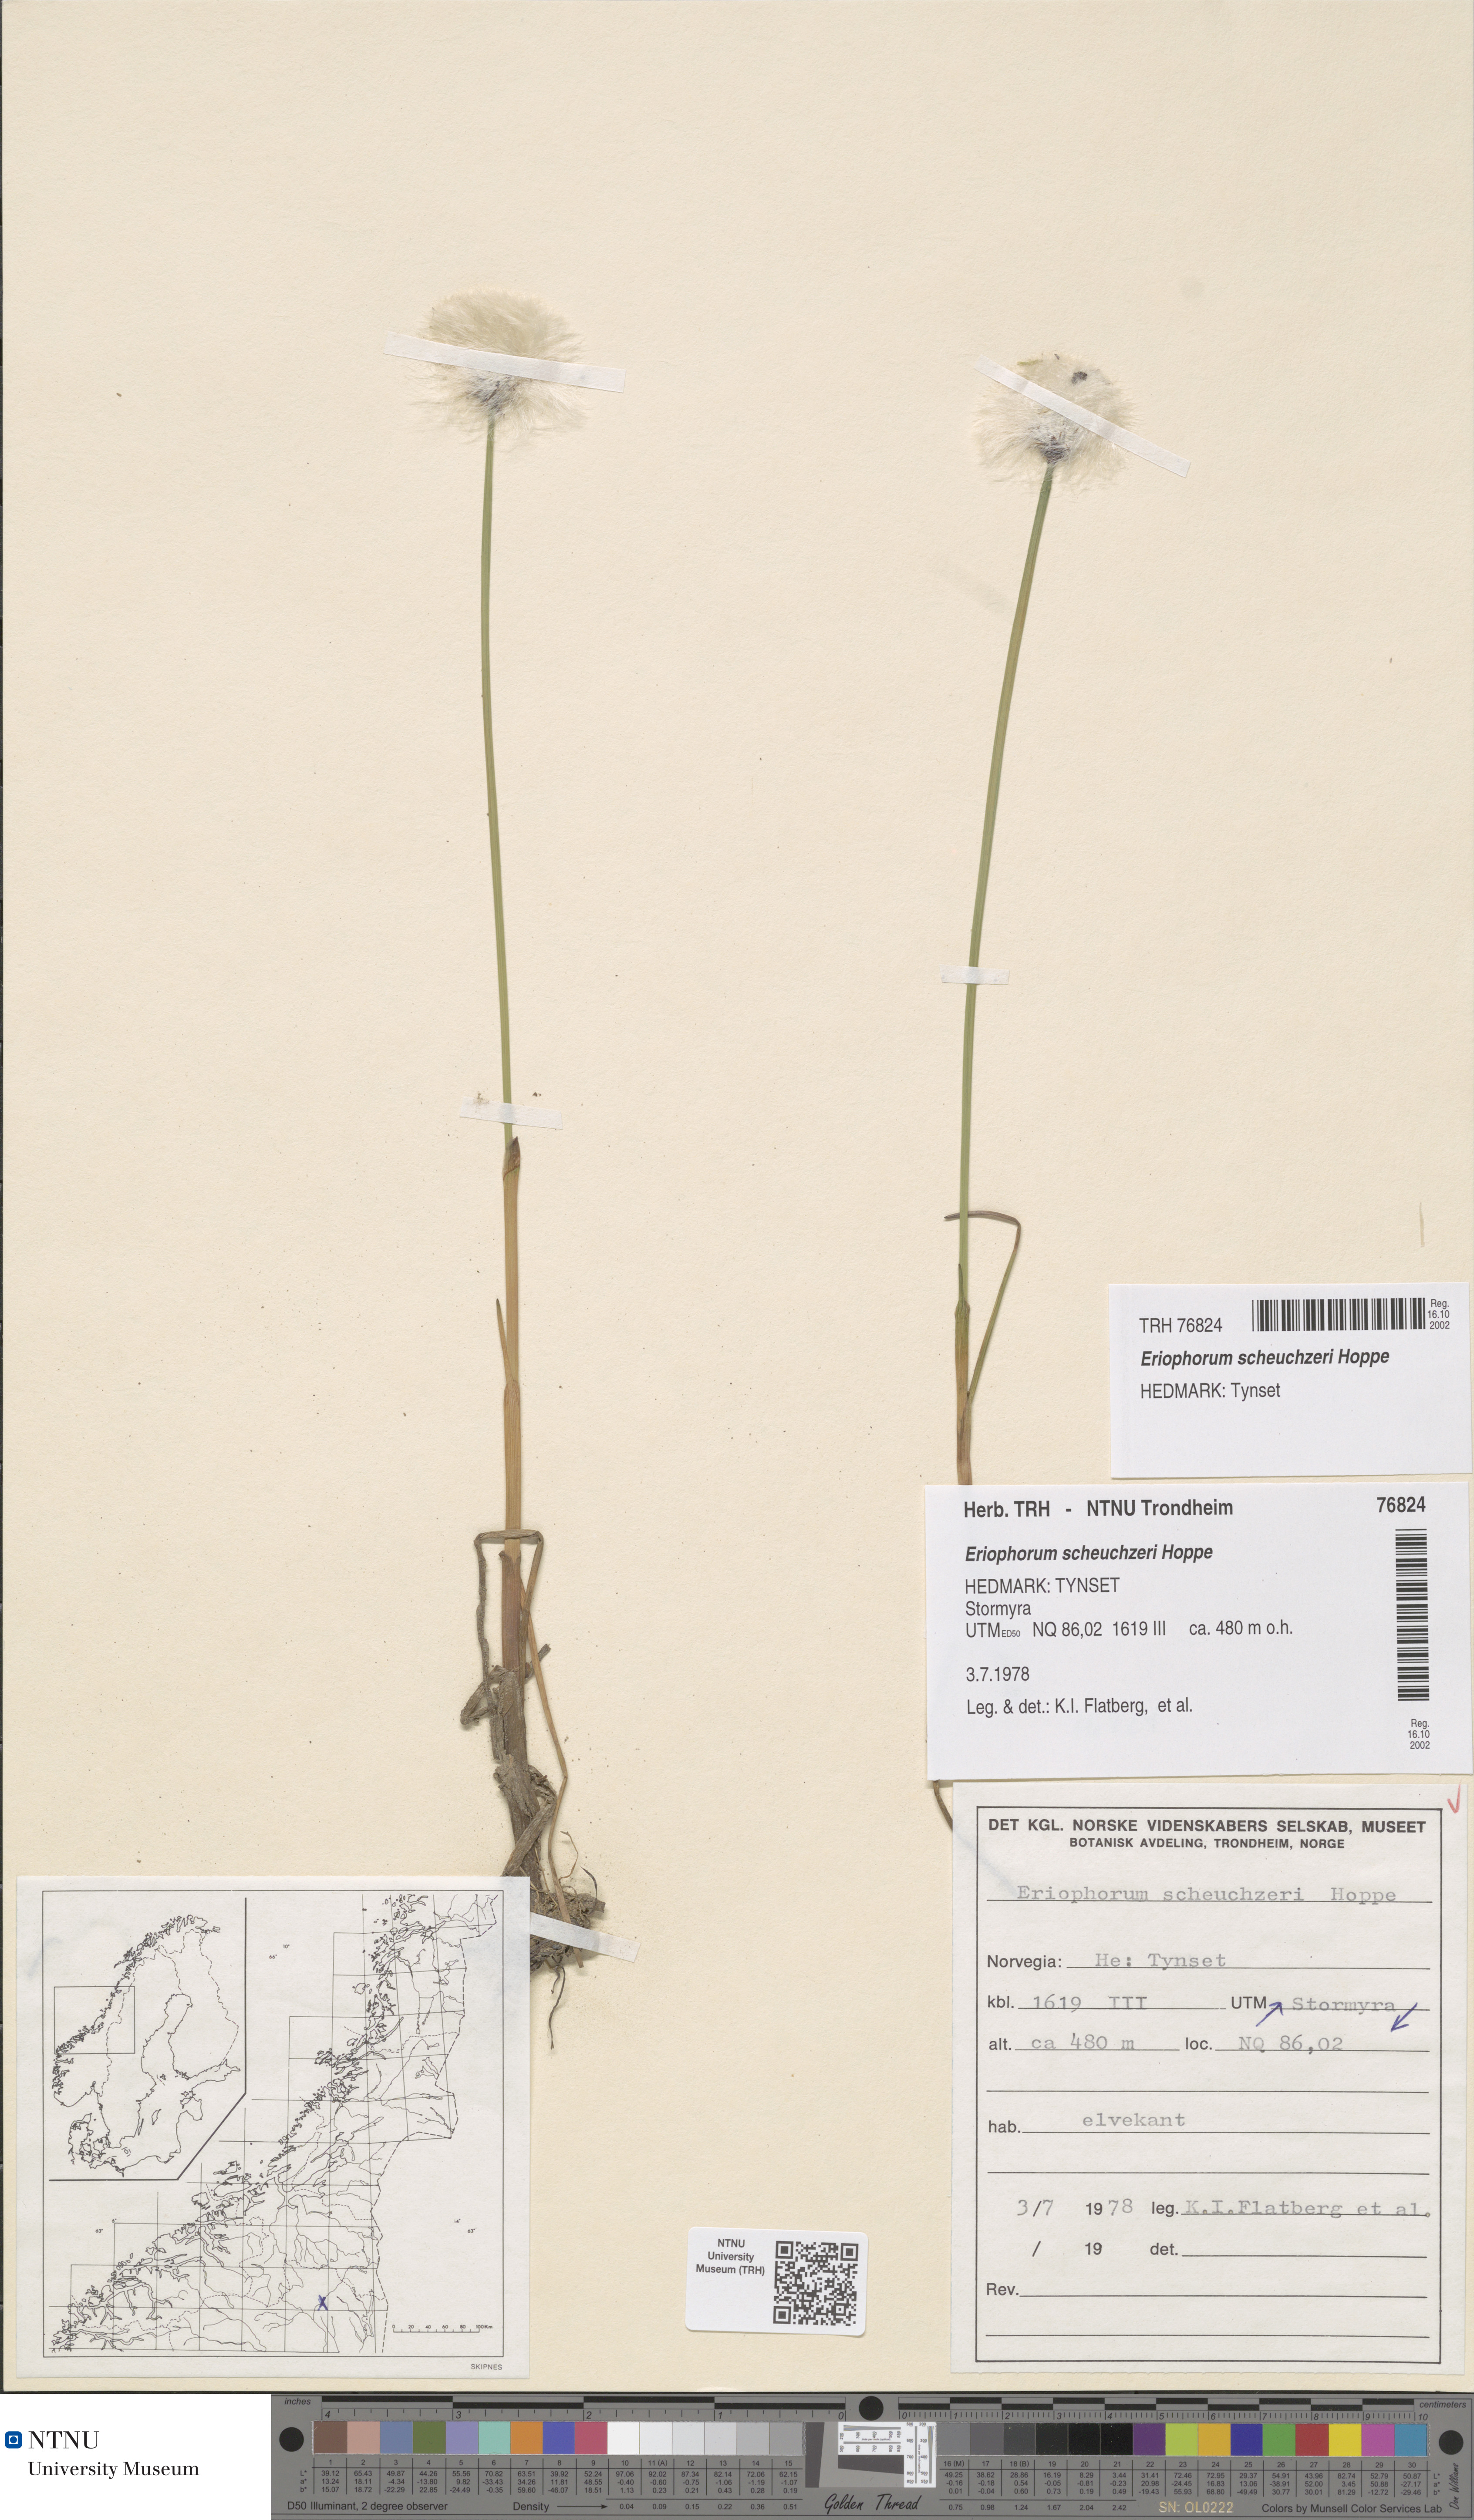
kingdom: Plantae
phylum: Tracheophyta
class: Liliopsida
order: Poales
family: Cyperaceae
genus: Eriophorum
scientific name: Eriophorum scheuchzeri
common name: Scheuchzer's cottongrass
